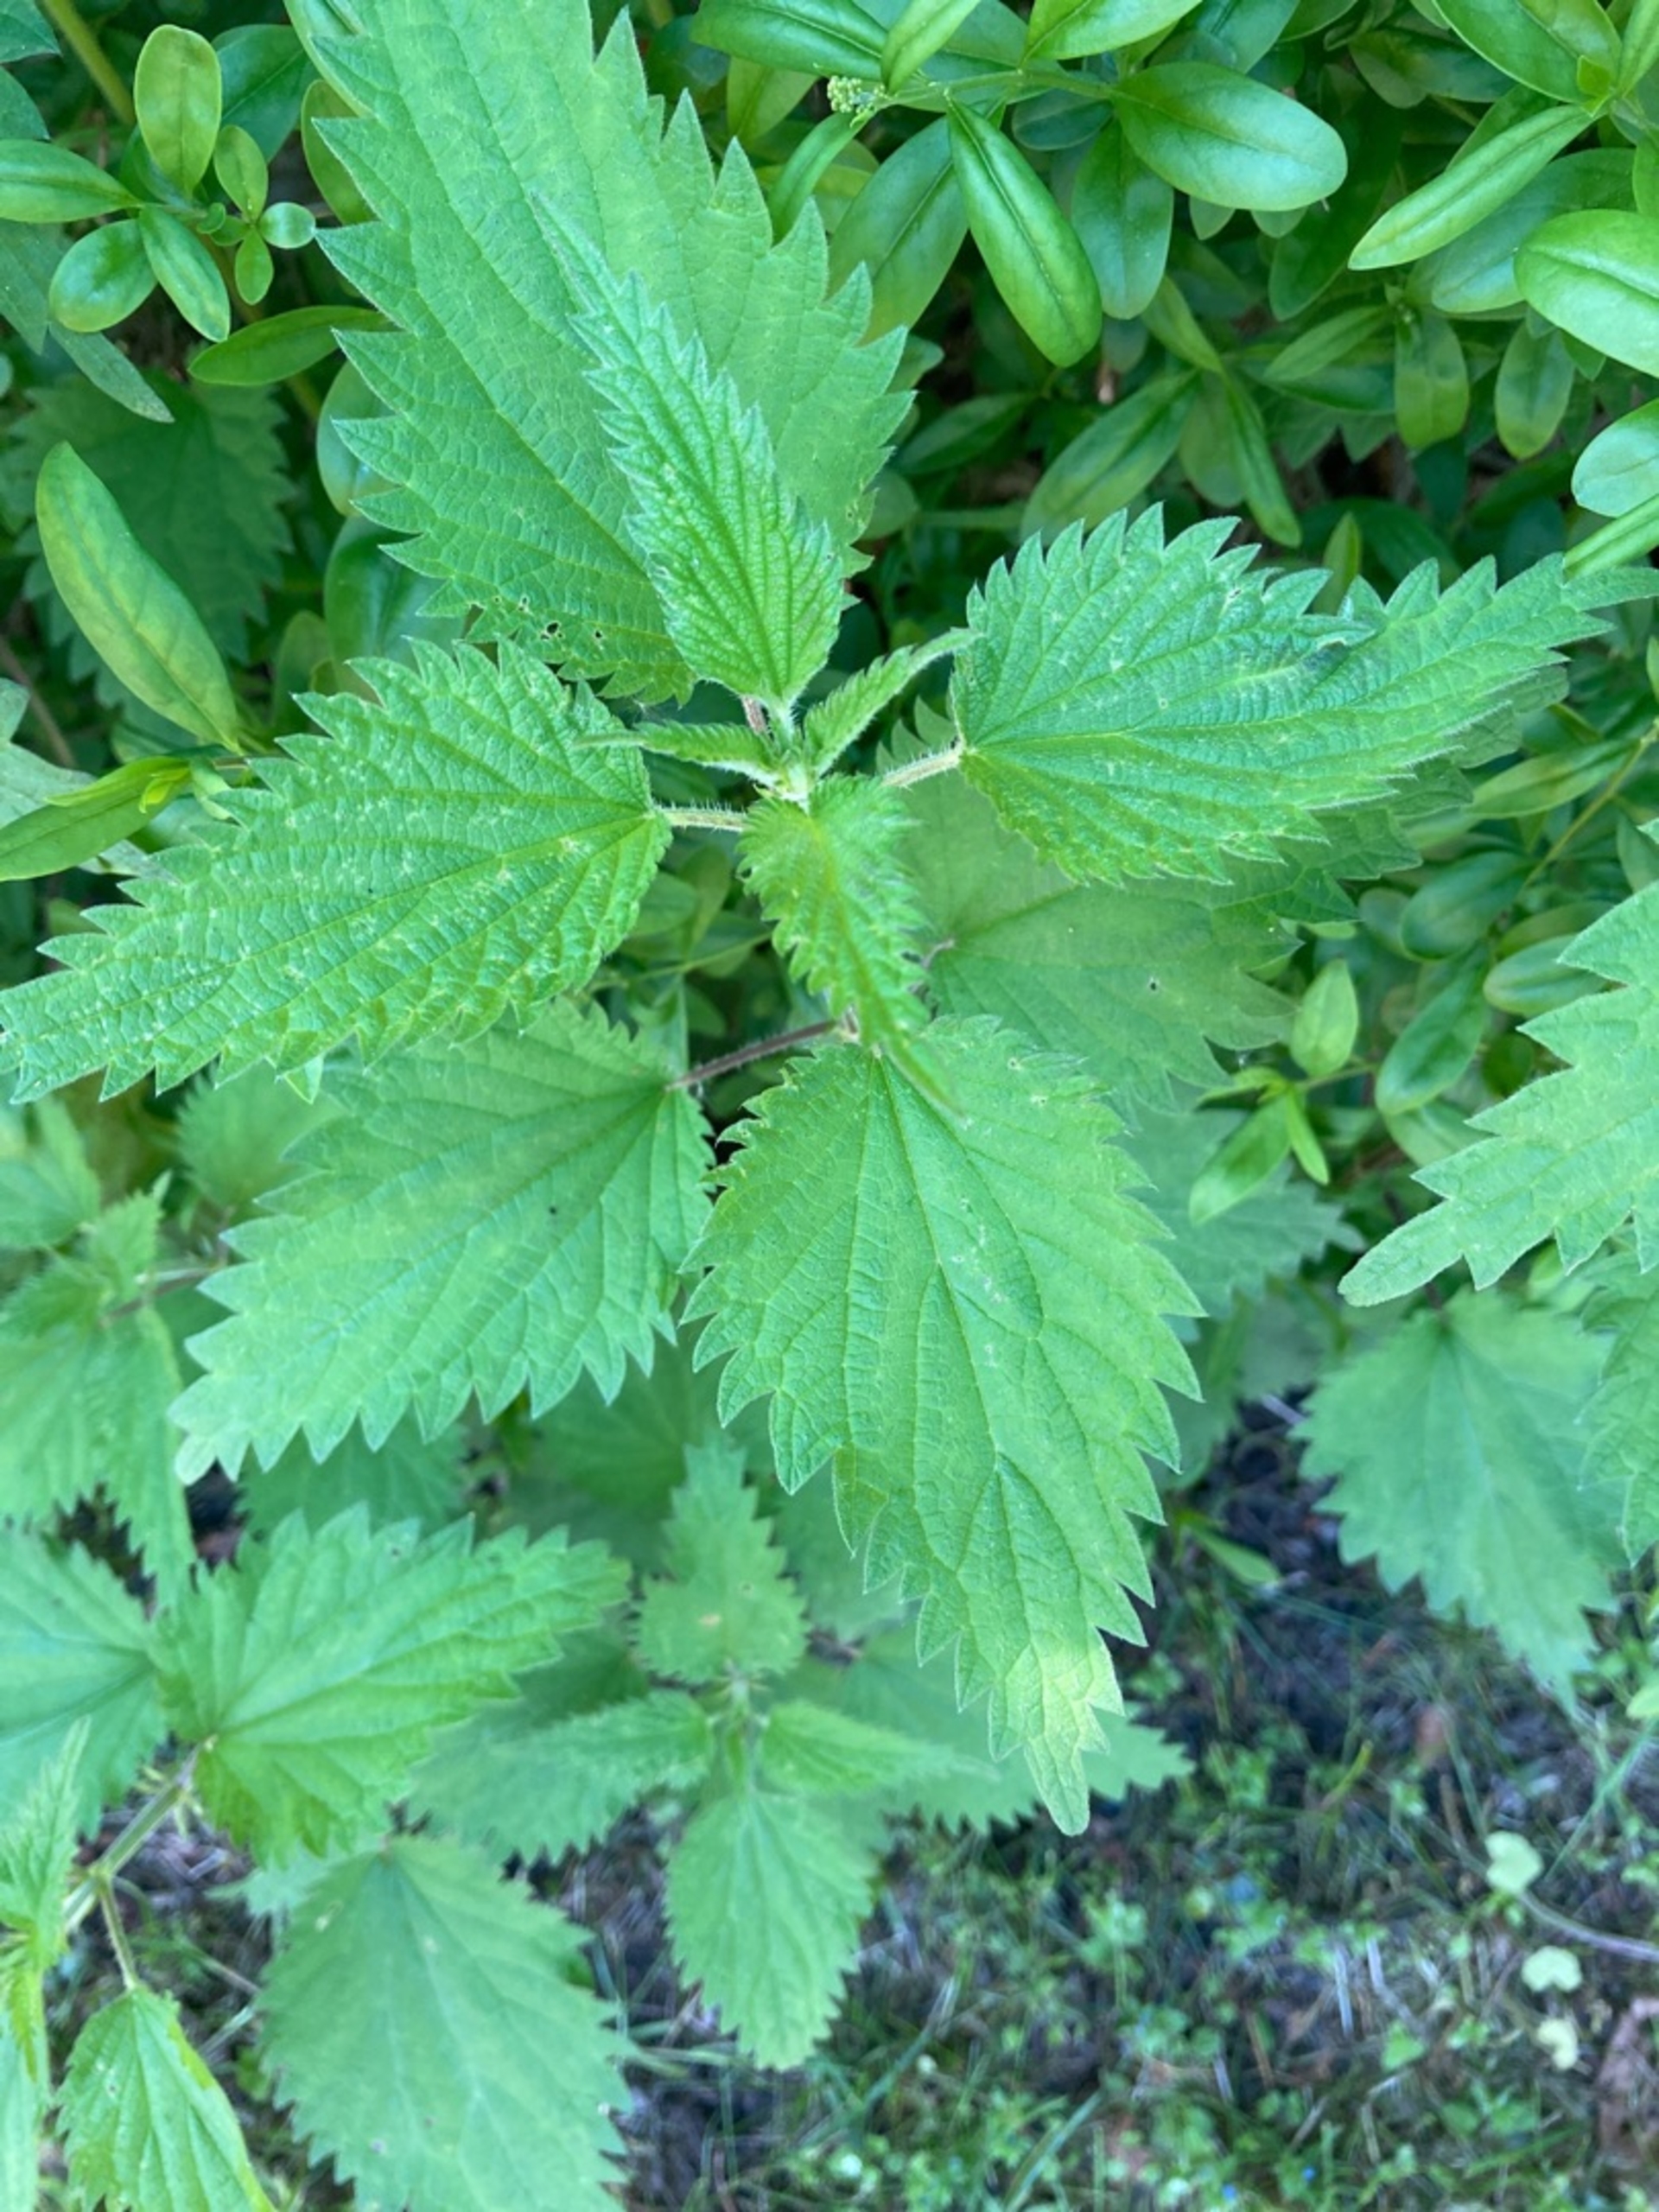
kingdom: Plantae
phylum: Tracheophyta
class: Magnoliopsida
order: Rosales
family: Urticaceae
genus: Urtica
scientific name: Urtica dioica
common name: Stor nælde
